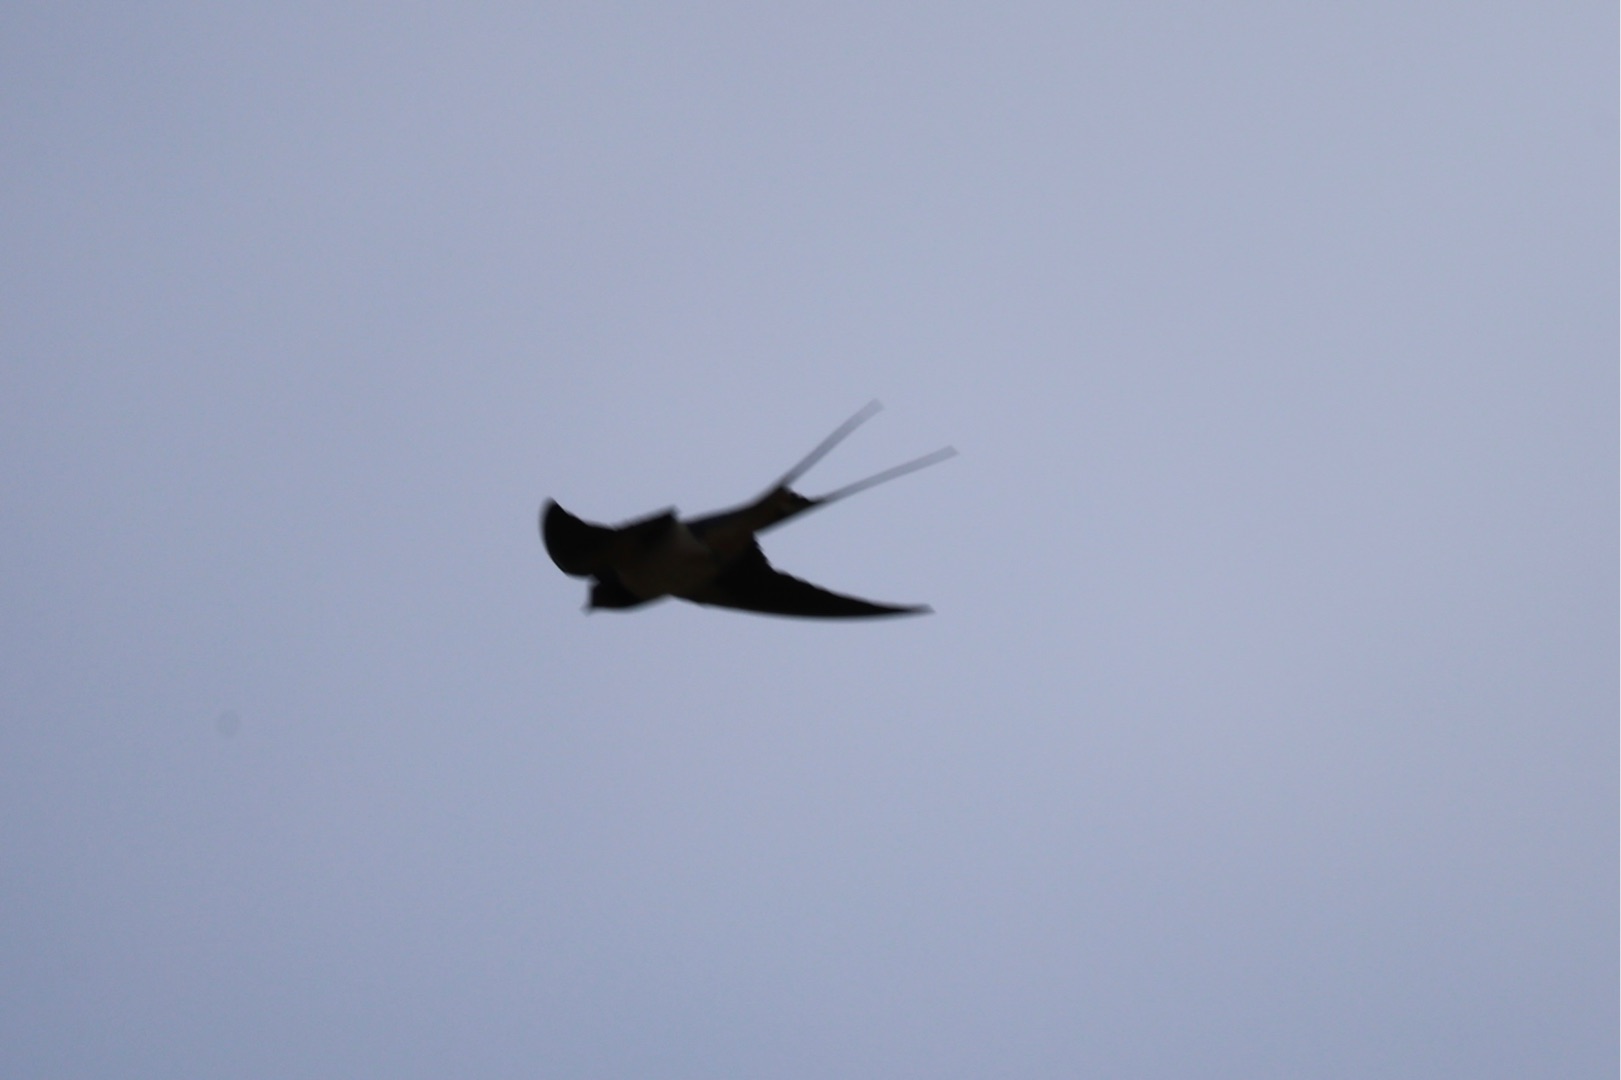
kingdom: Animalia
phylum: Chordata
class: Aves
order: Passeriformes
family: Hirundinidae
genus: Hirundo
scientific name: Hirundo rustica
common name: Landsvale
